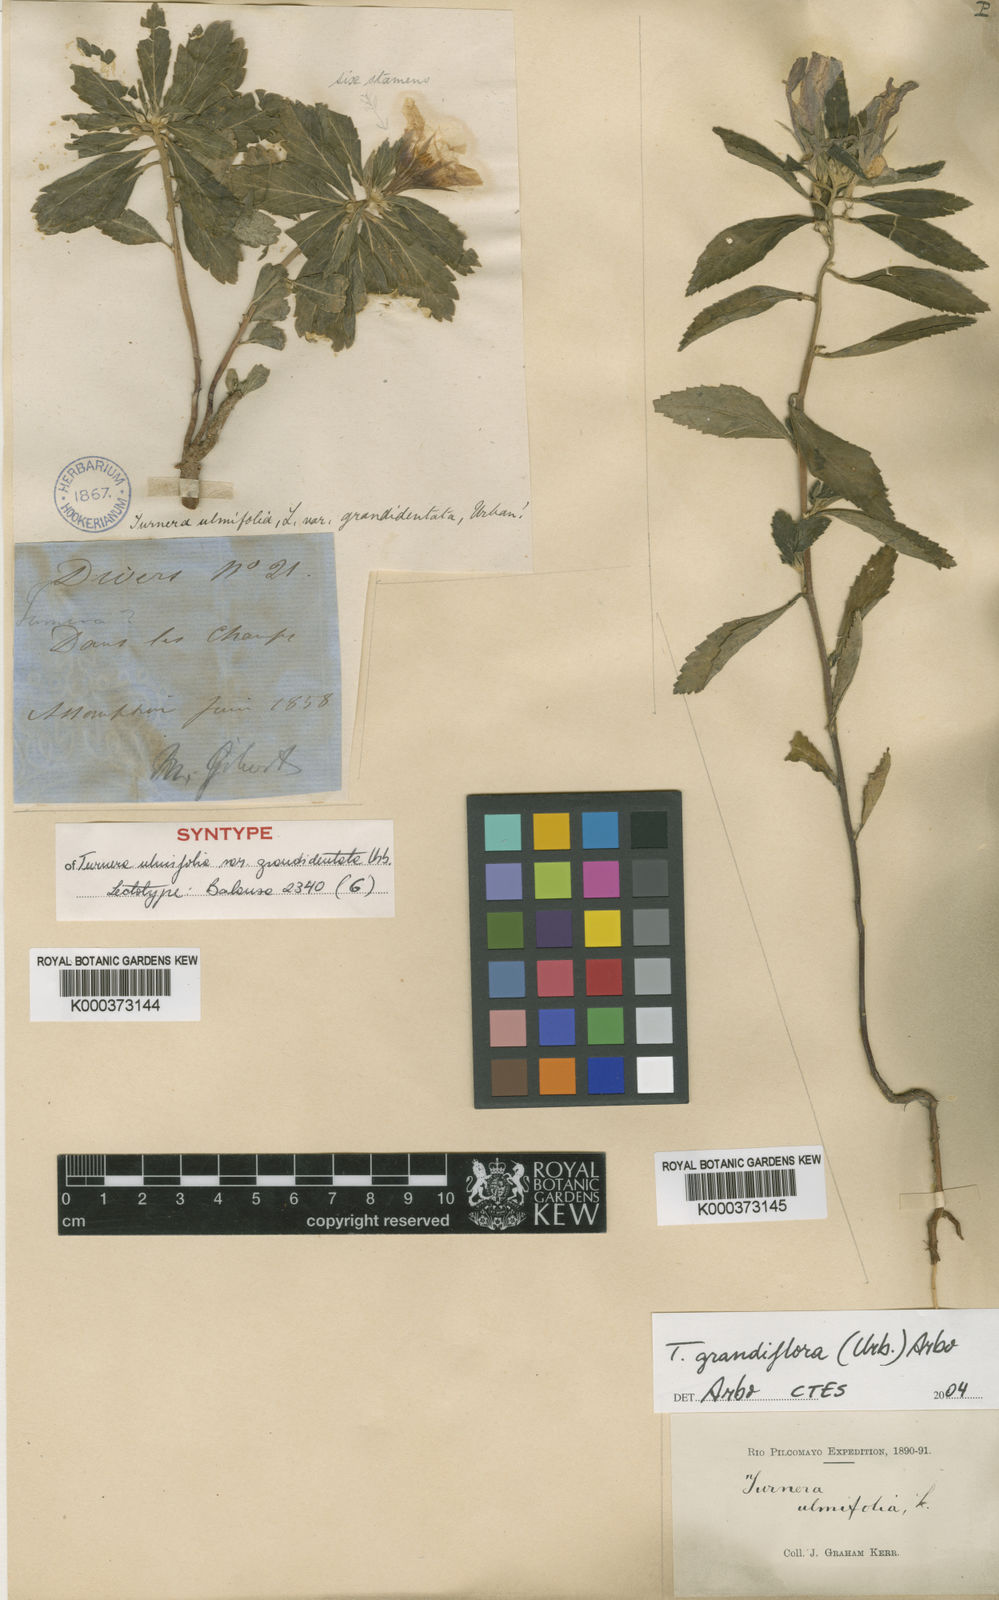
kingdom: Plantae
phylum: Tracheophyta
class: Magnoliopsida
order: Malpighiales
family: Turneraceae
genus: Turnera
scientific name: Turnera grandidentata
